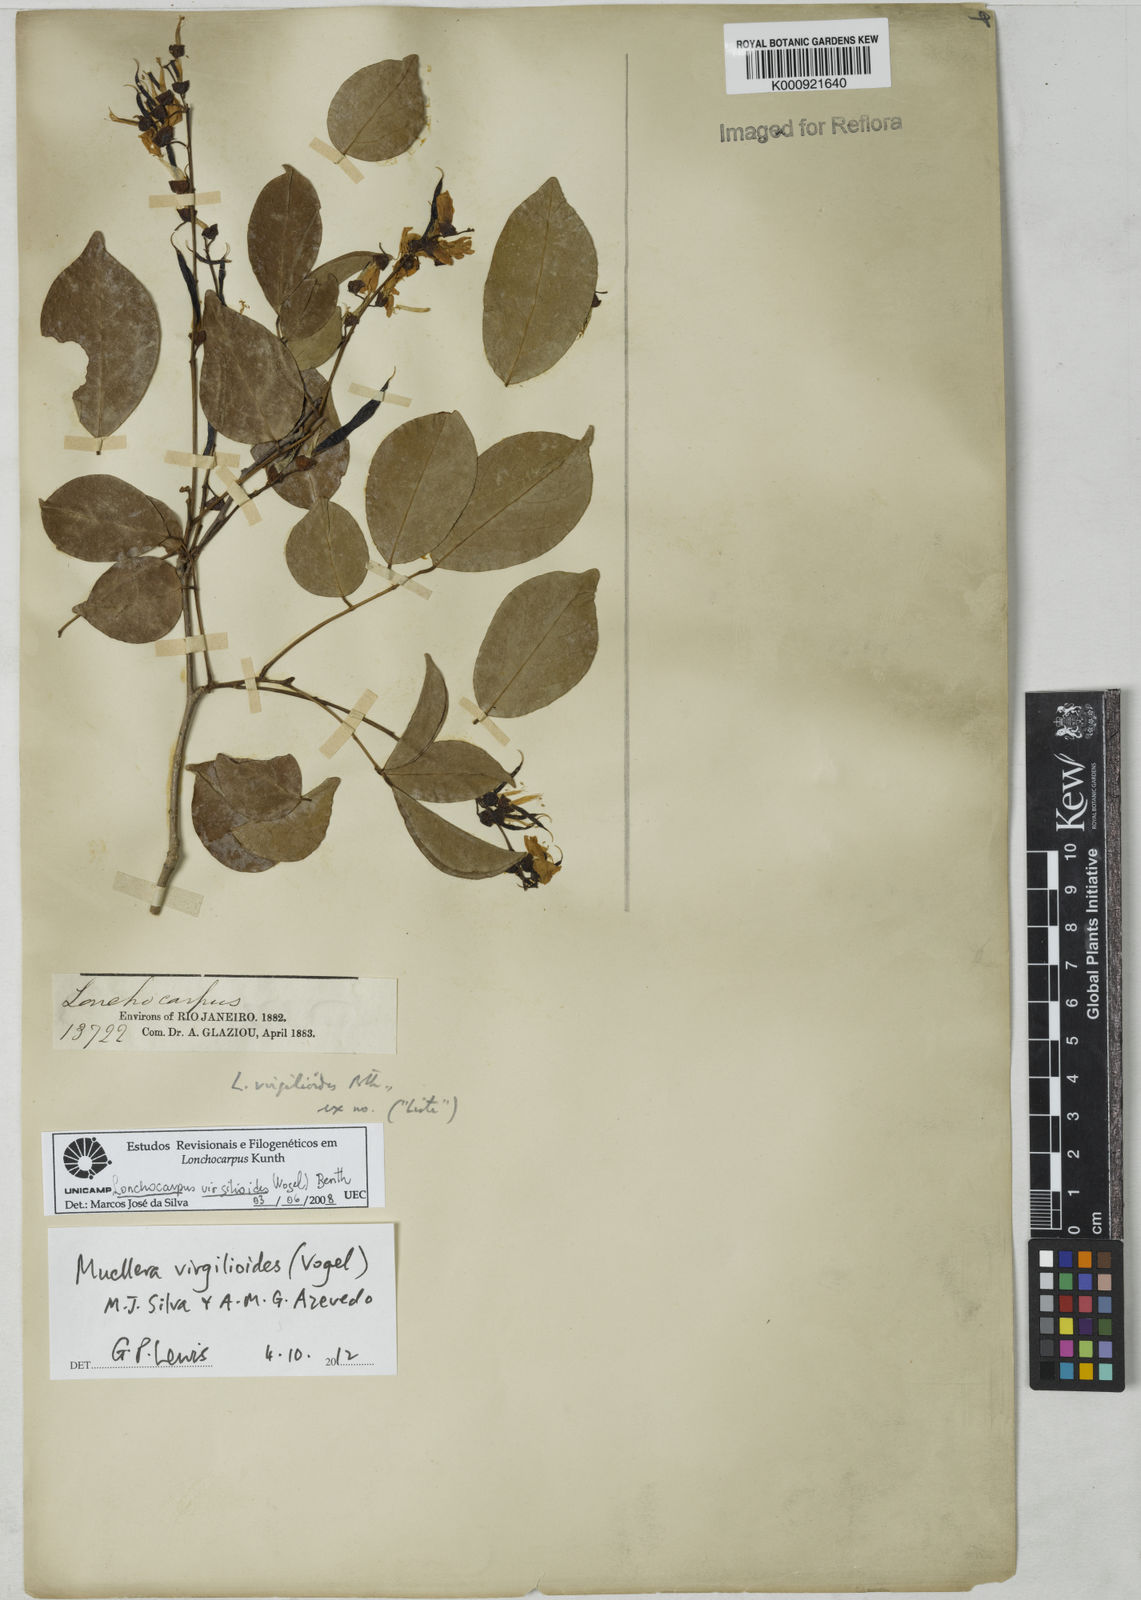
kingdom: Plantae
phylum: Tracheophyta
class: Magnoliopsida
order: Fabales
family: Fabaceae
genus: Muellera
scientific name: Muellera virgilioides
